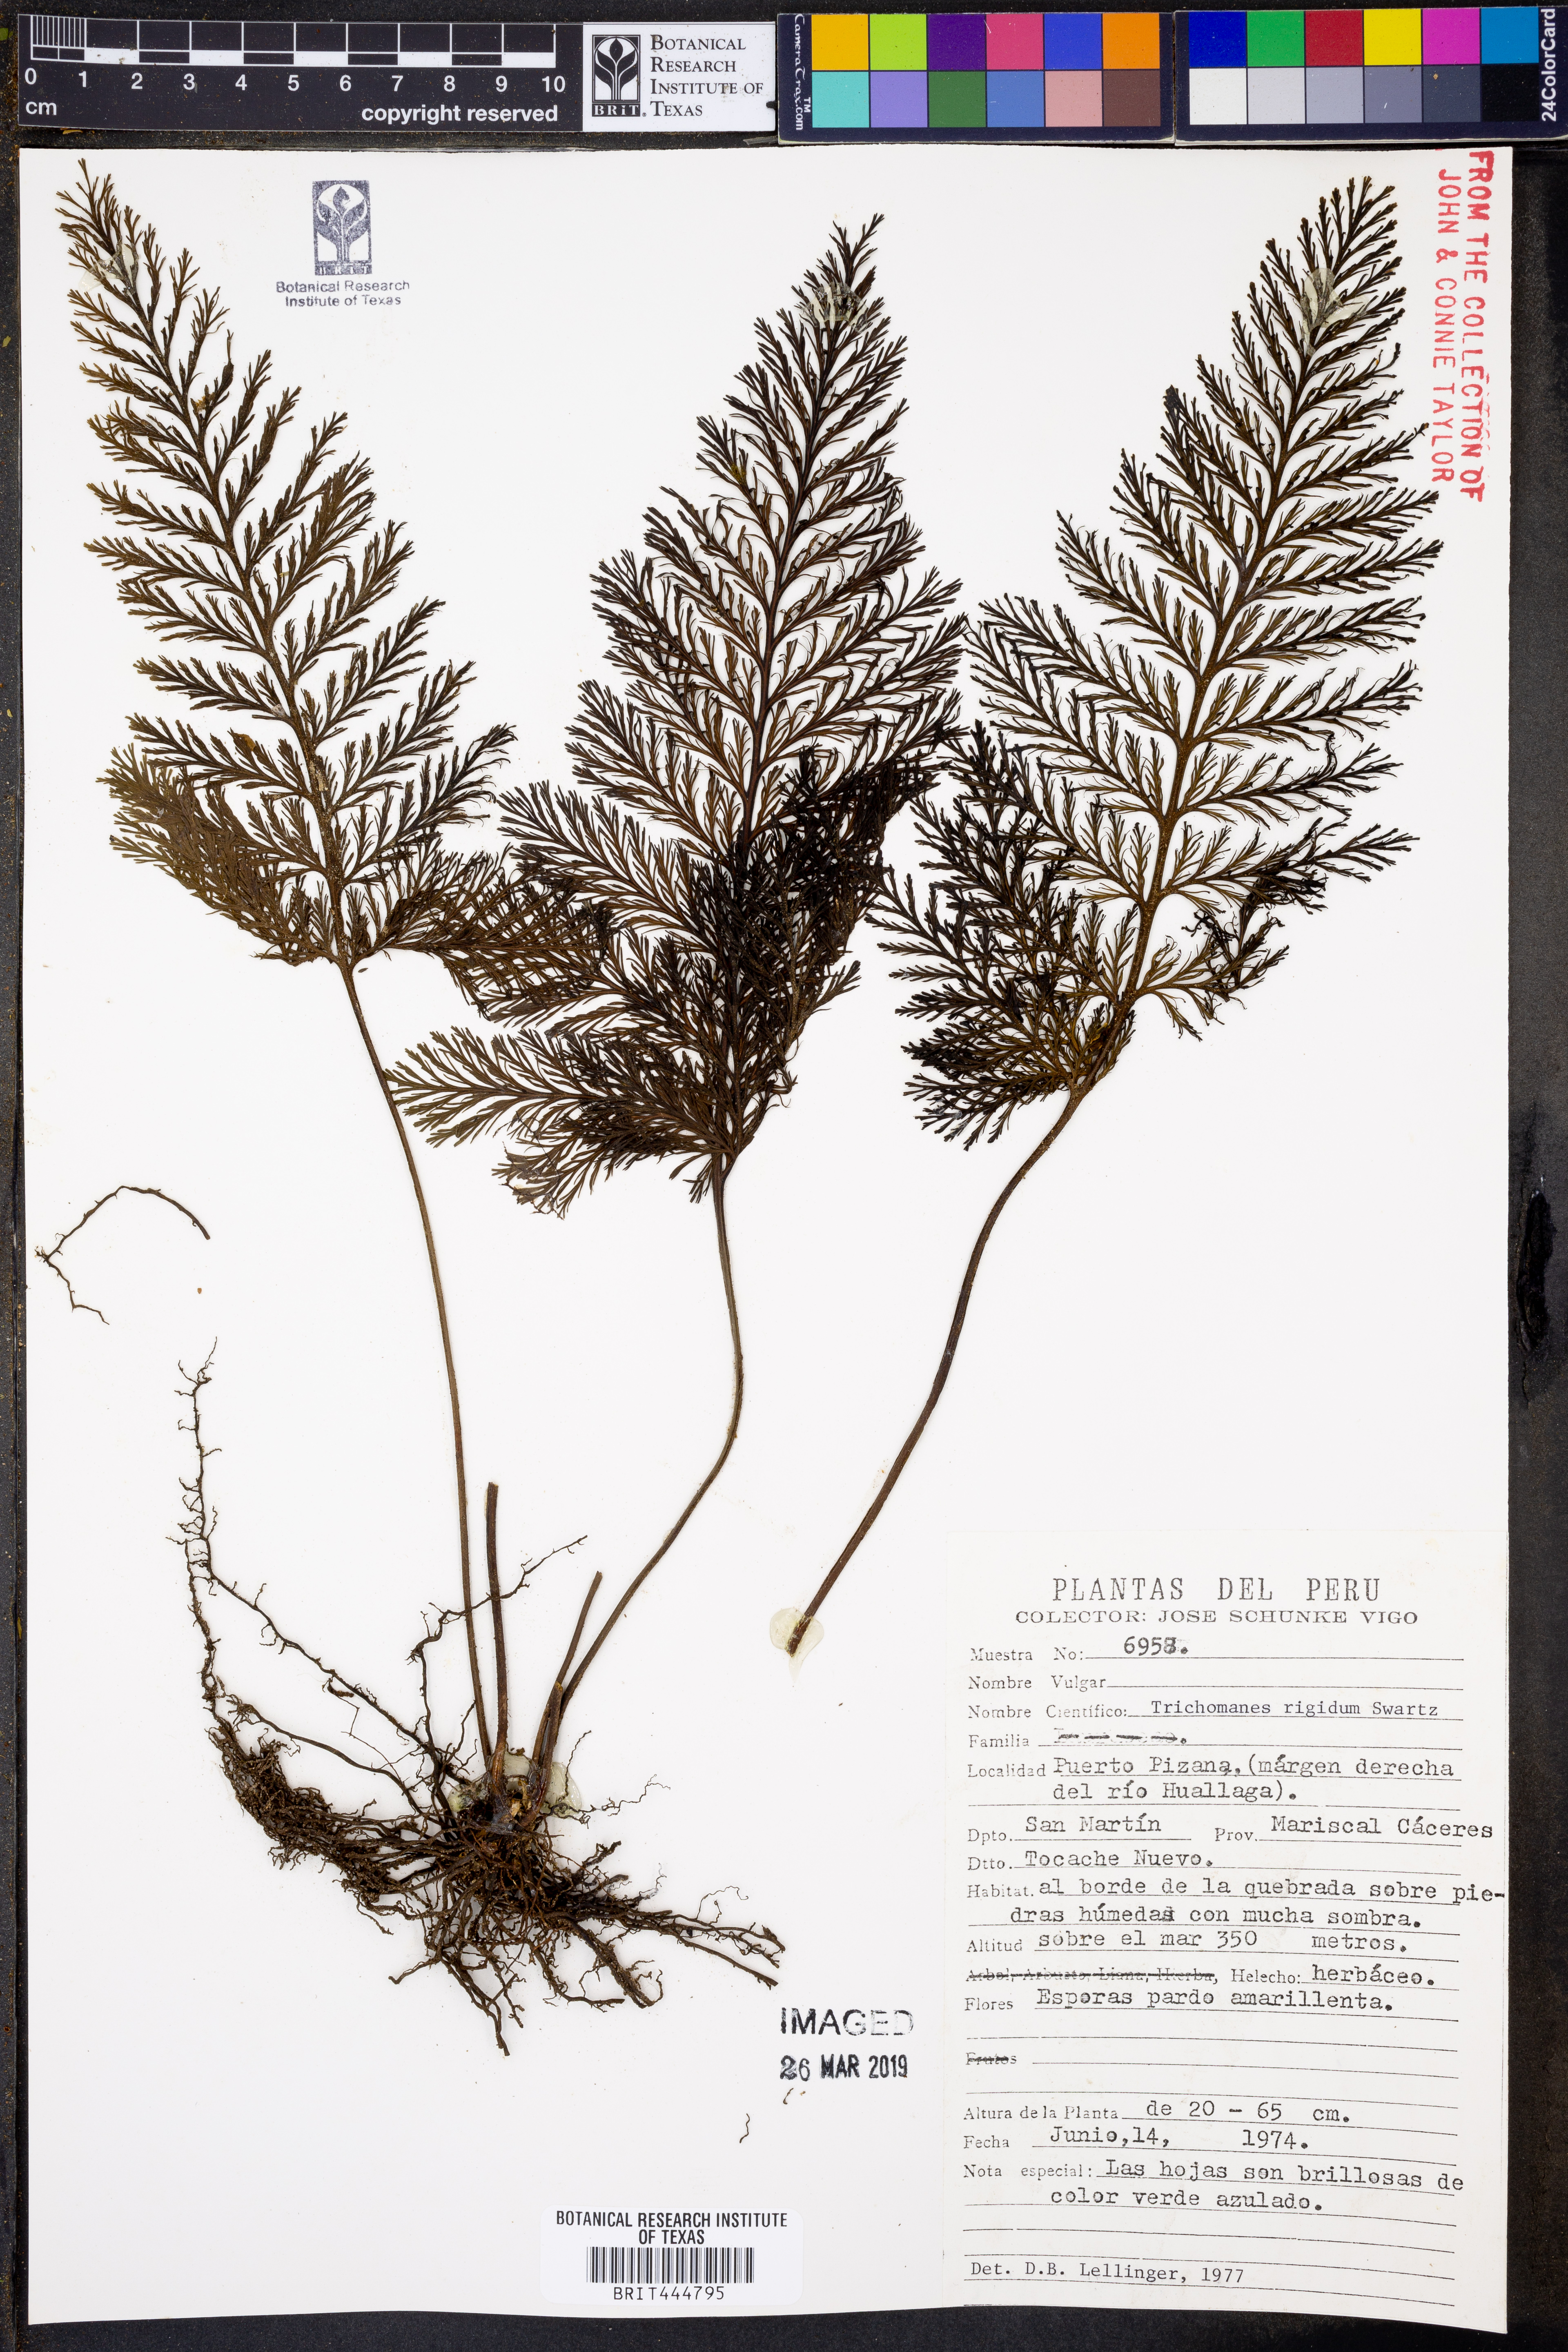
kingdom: Plantae
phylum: Tracheophyta
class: Polypodiopsida
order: Hymenophyllales
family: Hymenophyllaceae
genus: Abrodictyum
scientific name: Abrodictyum rigidum
